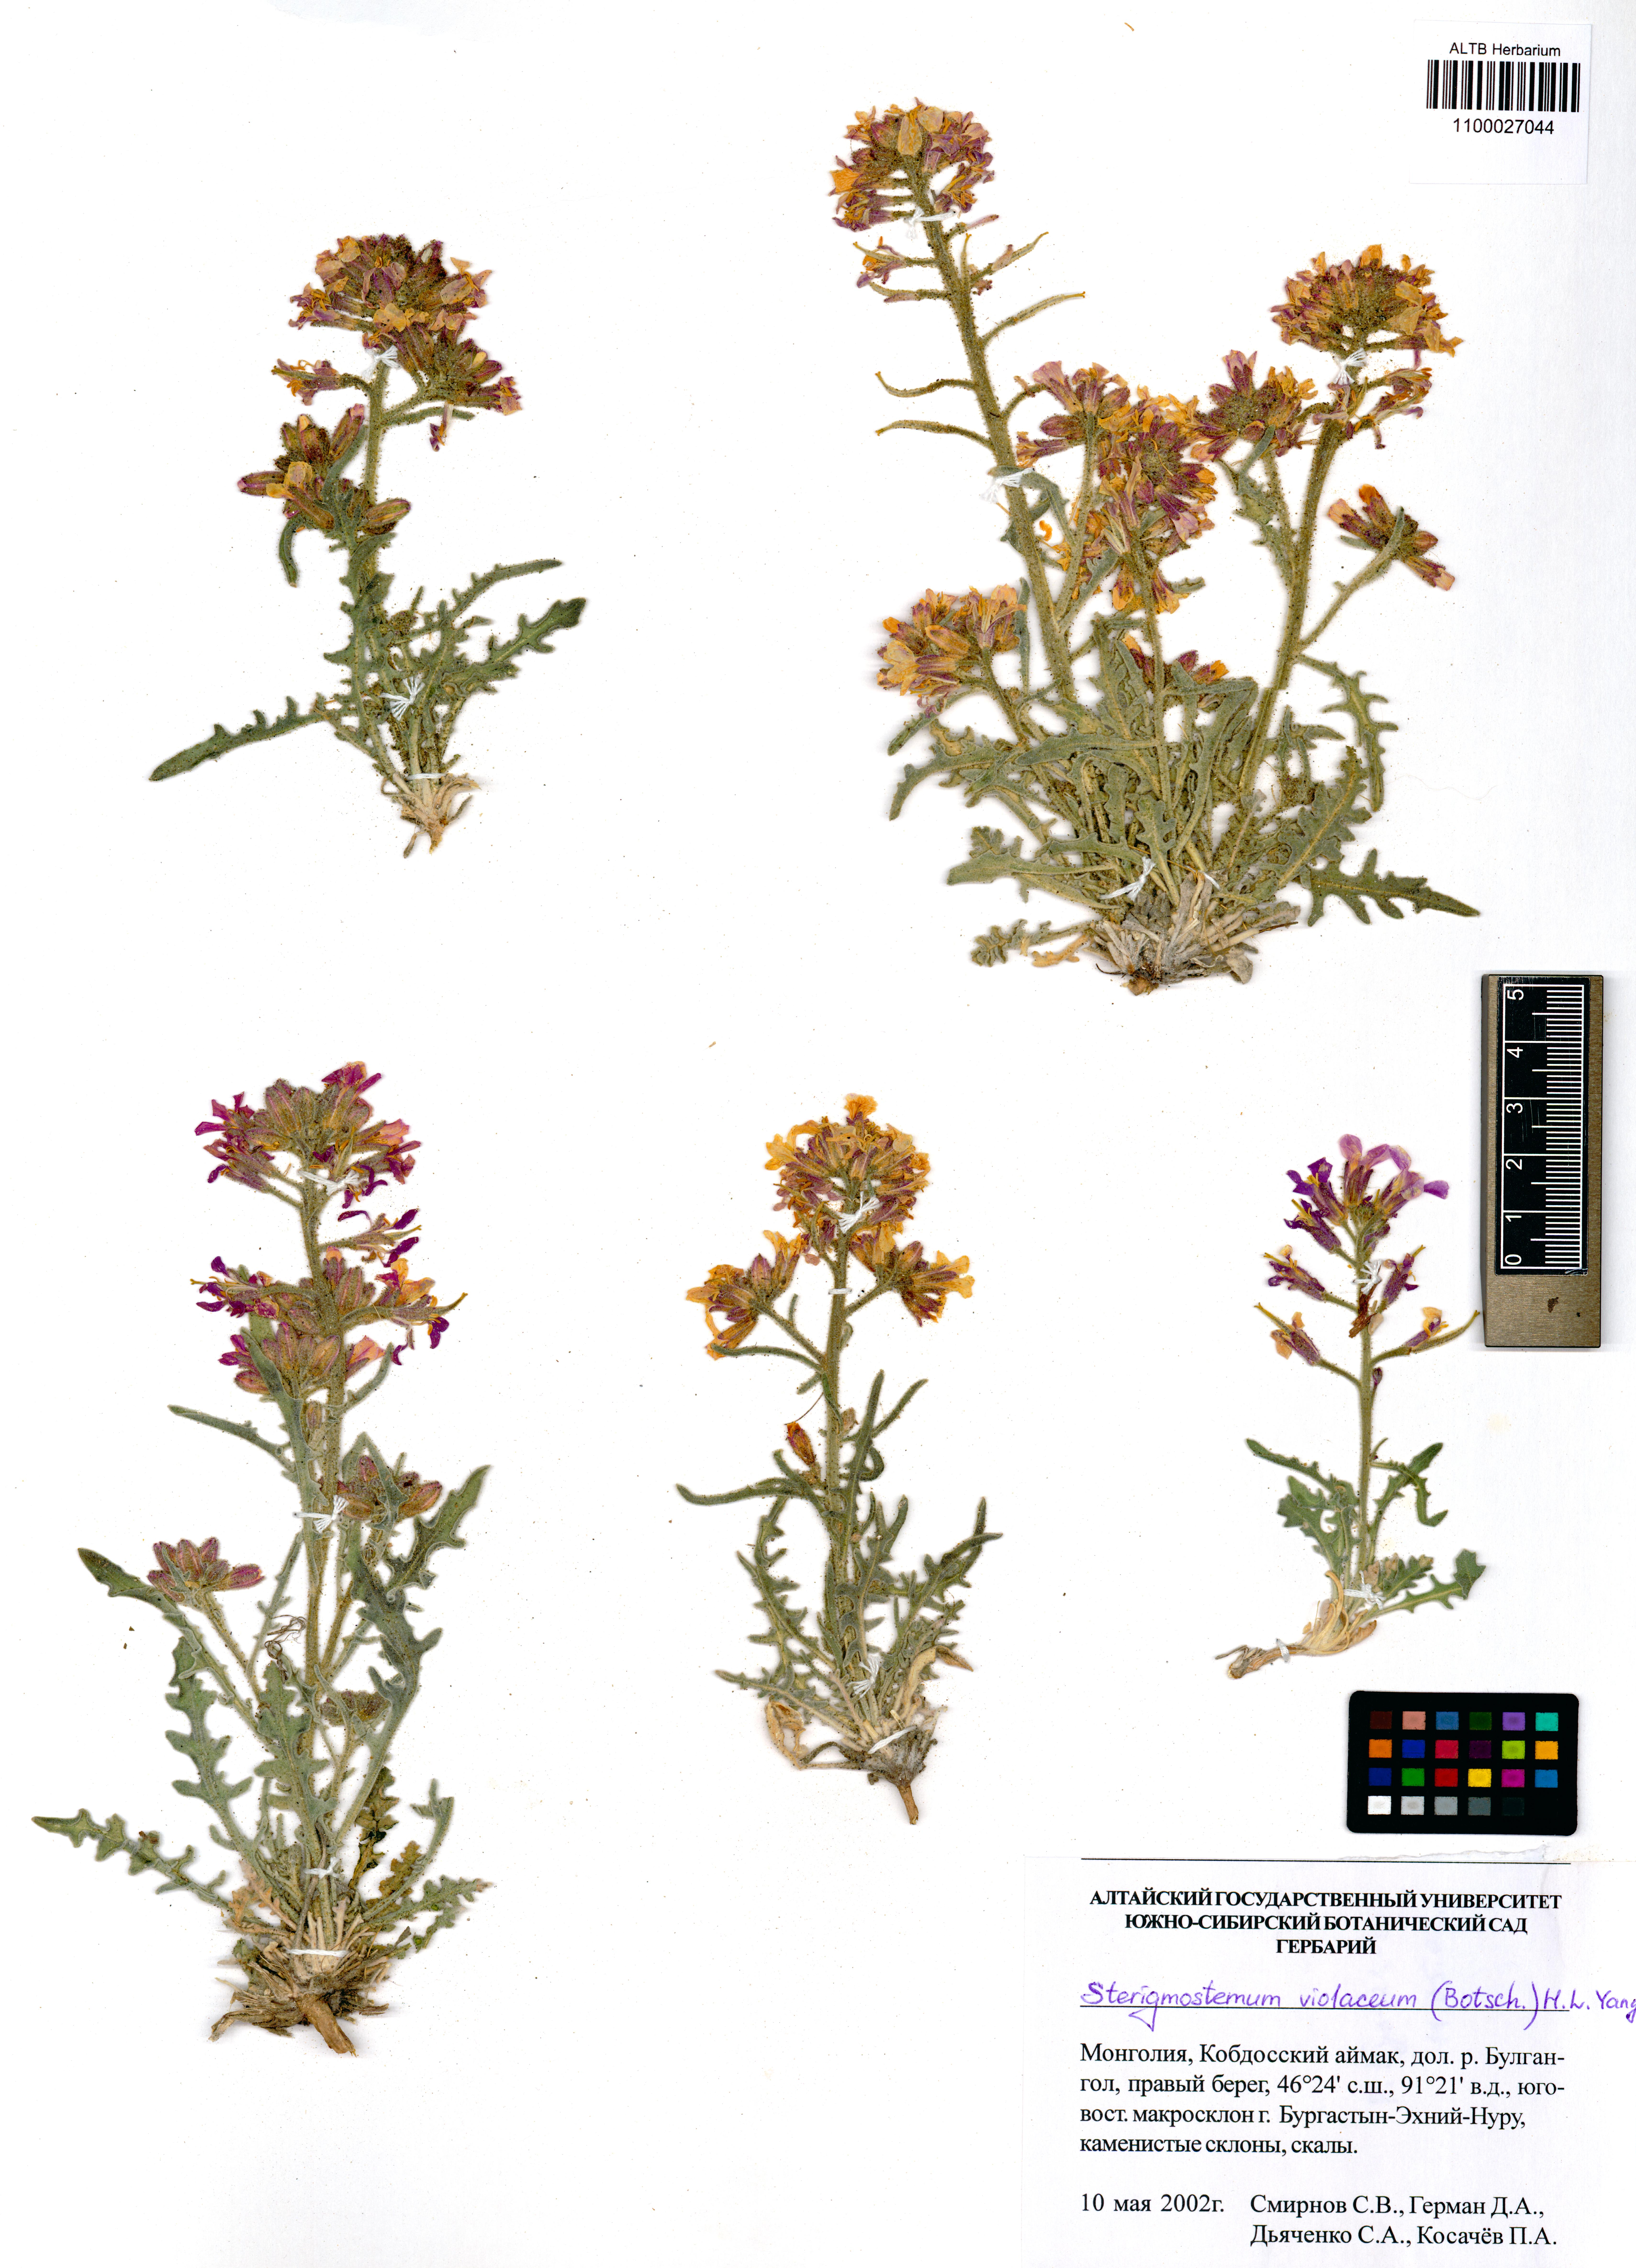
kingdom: Plantae
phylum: Tracheophyta
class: Magnoliopsida
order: Brassicales
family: Brassicaceae
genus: Sterigmostemum
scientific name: Sterigmostemum violaceum
